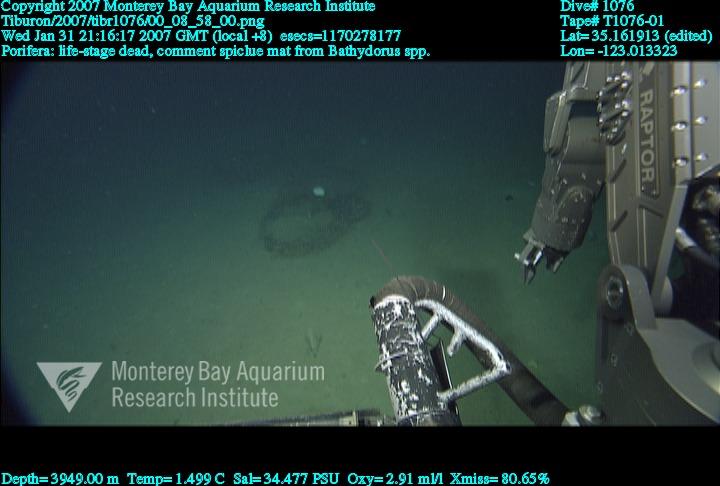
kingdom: Animalia
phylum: Porifera
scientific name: Porifera
